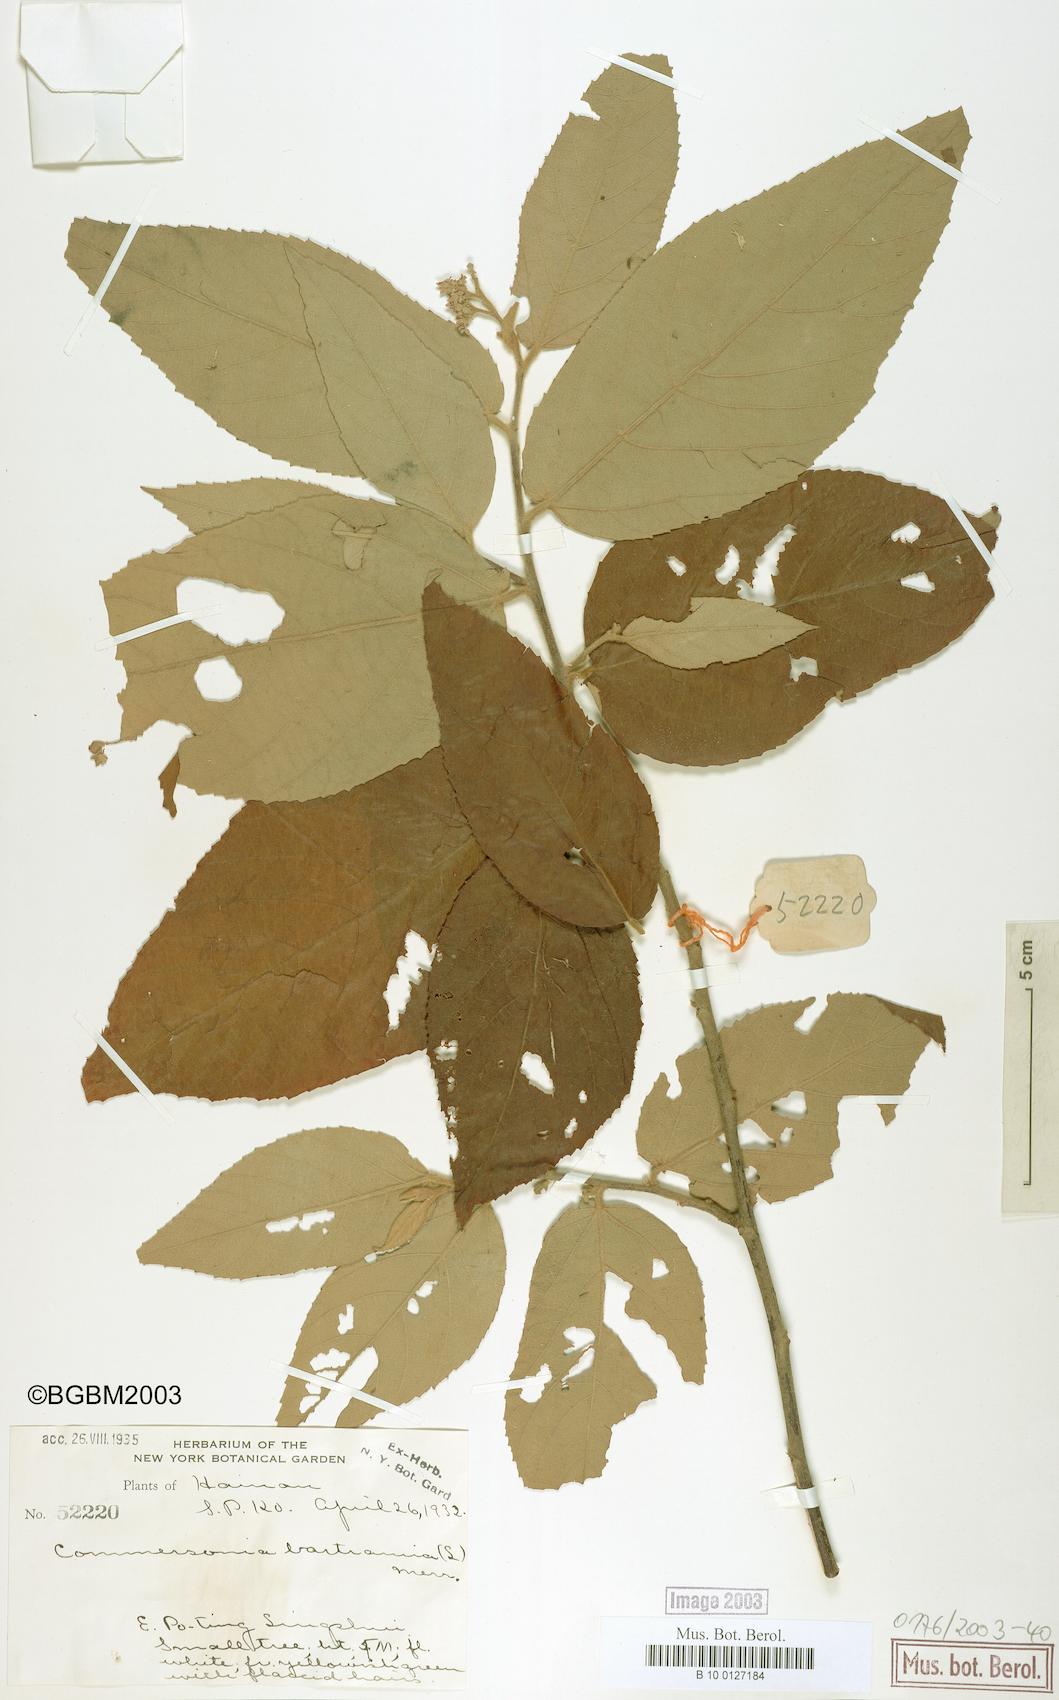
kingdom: Plantae
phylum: Tracheophyta
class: Magnoliopsida
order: Malvales
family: Malvaceae
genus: Commersonia
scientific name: Commersonia bartramia
